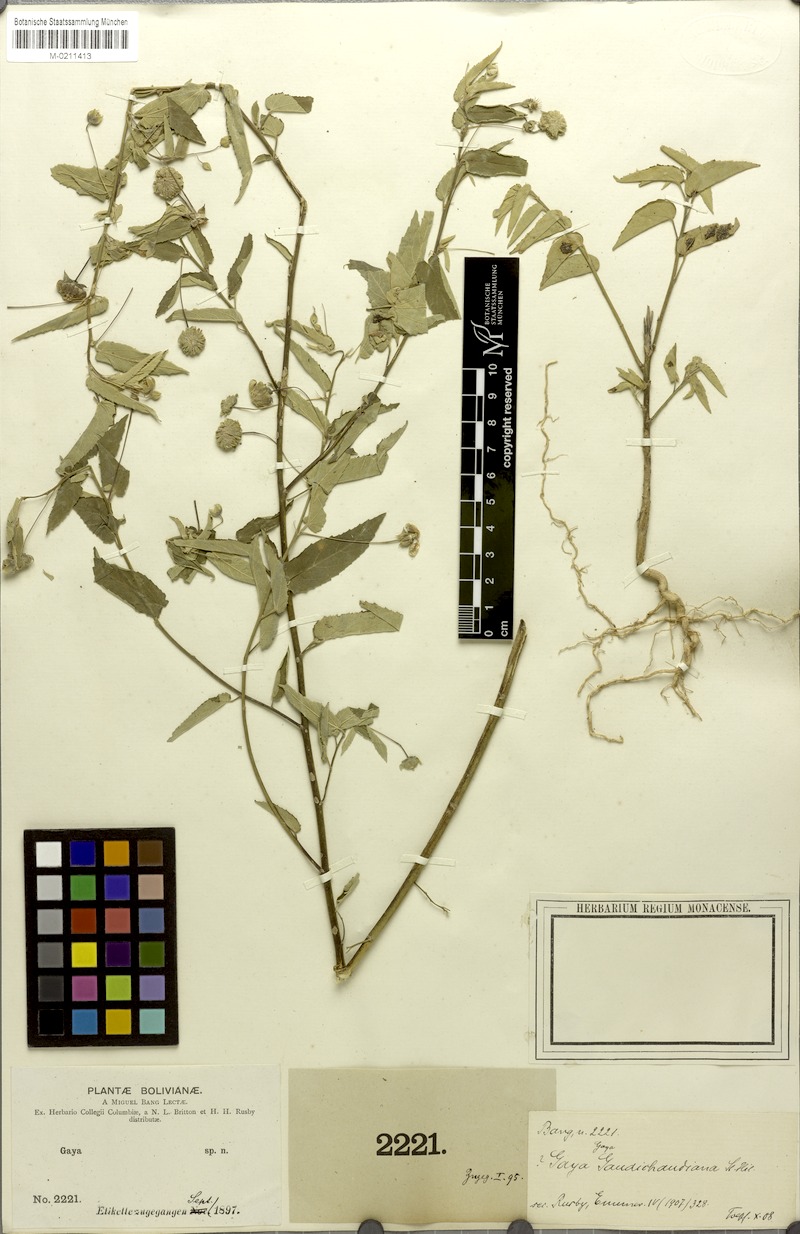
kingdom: Plantae
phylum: Tracheophyta
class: Magnoliopsida
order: Malvales
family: Malvaceae
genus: Gaya
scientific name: Gaya gaudichaudiana
